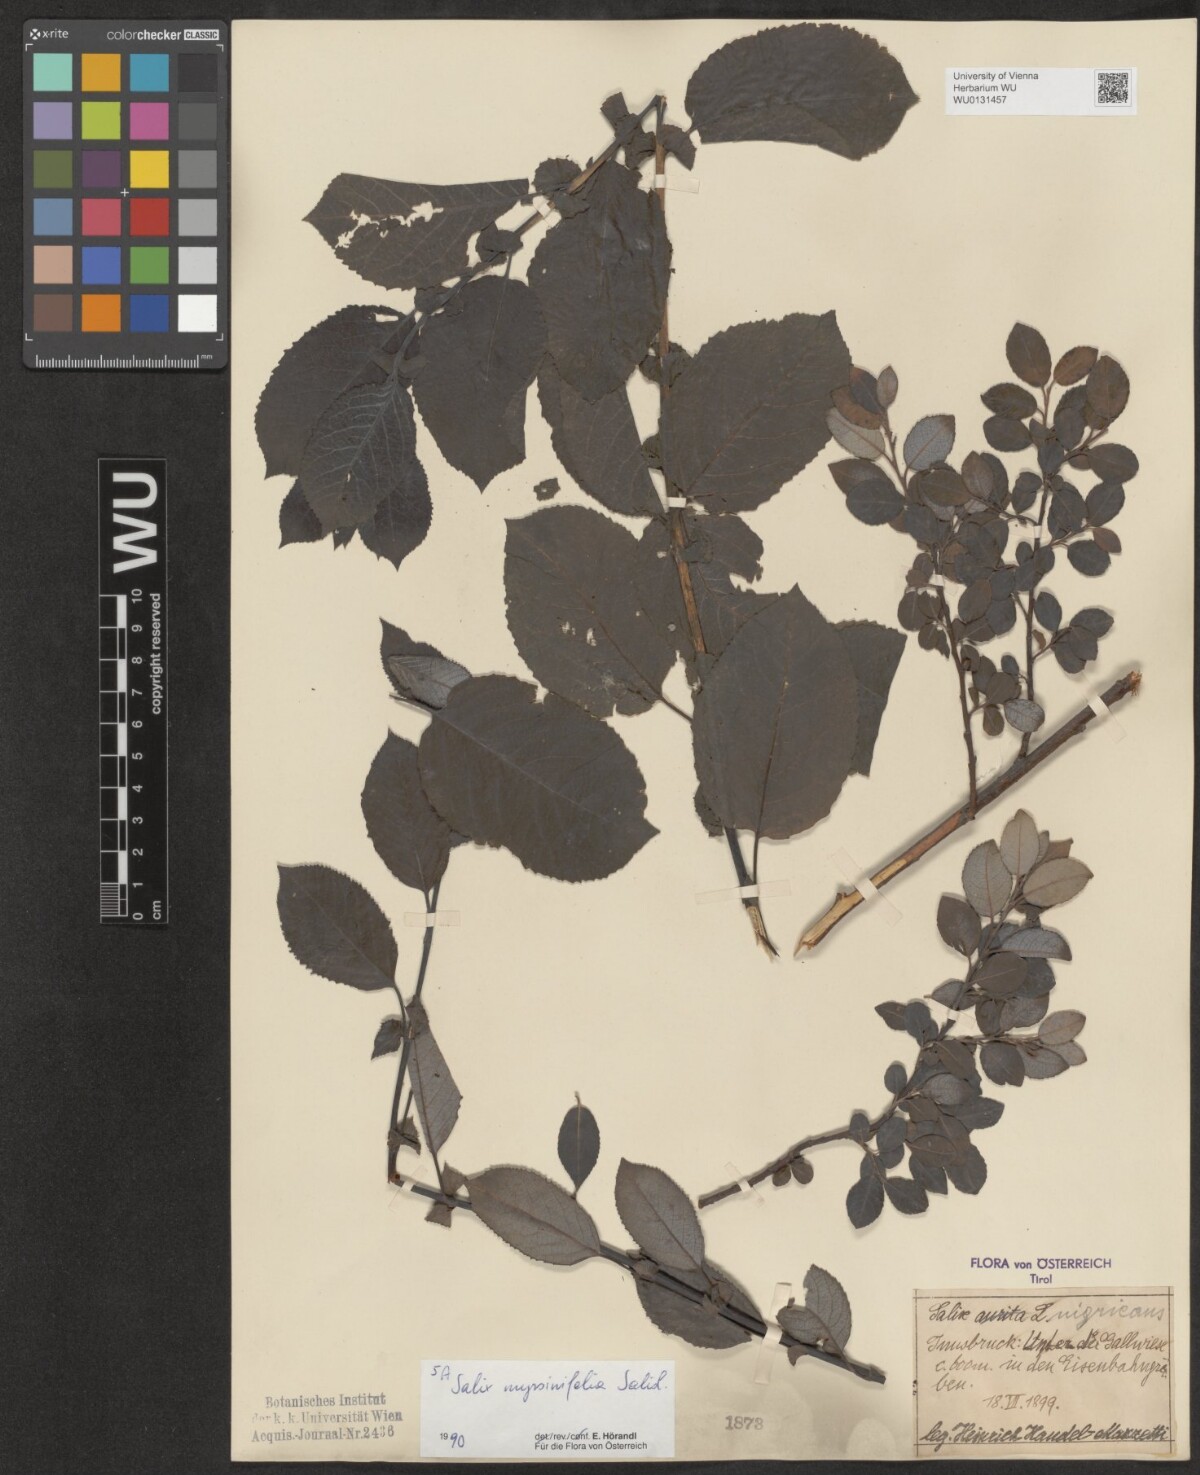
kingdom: Plantae
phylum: Tracheophyta
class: Magnoliopsida
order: Malpighiales
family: Salicaceae
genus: Salix
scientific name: Salix myrsinifolia
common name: Dark-leaved willow
